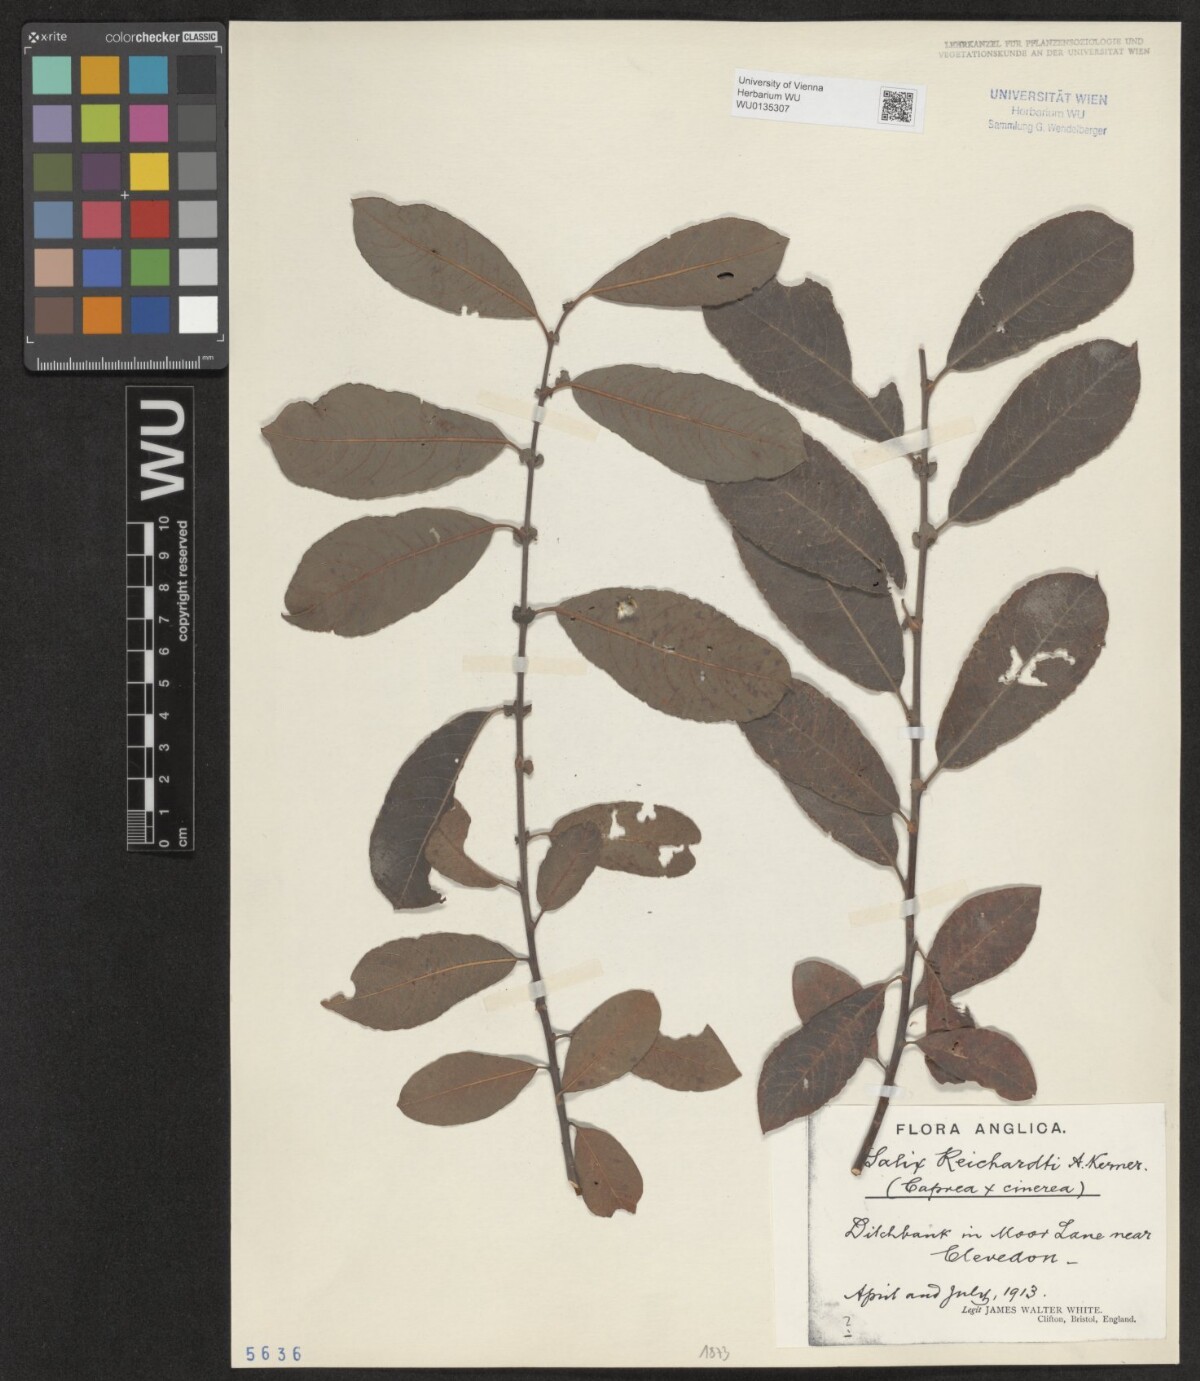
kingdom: Plantae
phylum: Tracheophyta
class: Magnoliopsida
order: Malpighiales
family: Salicaceae
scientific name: Salicaceae
